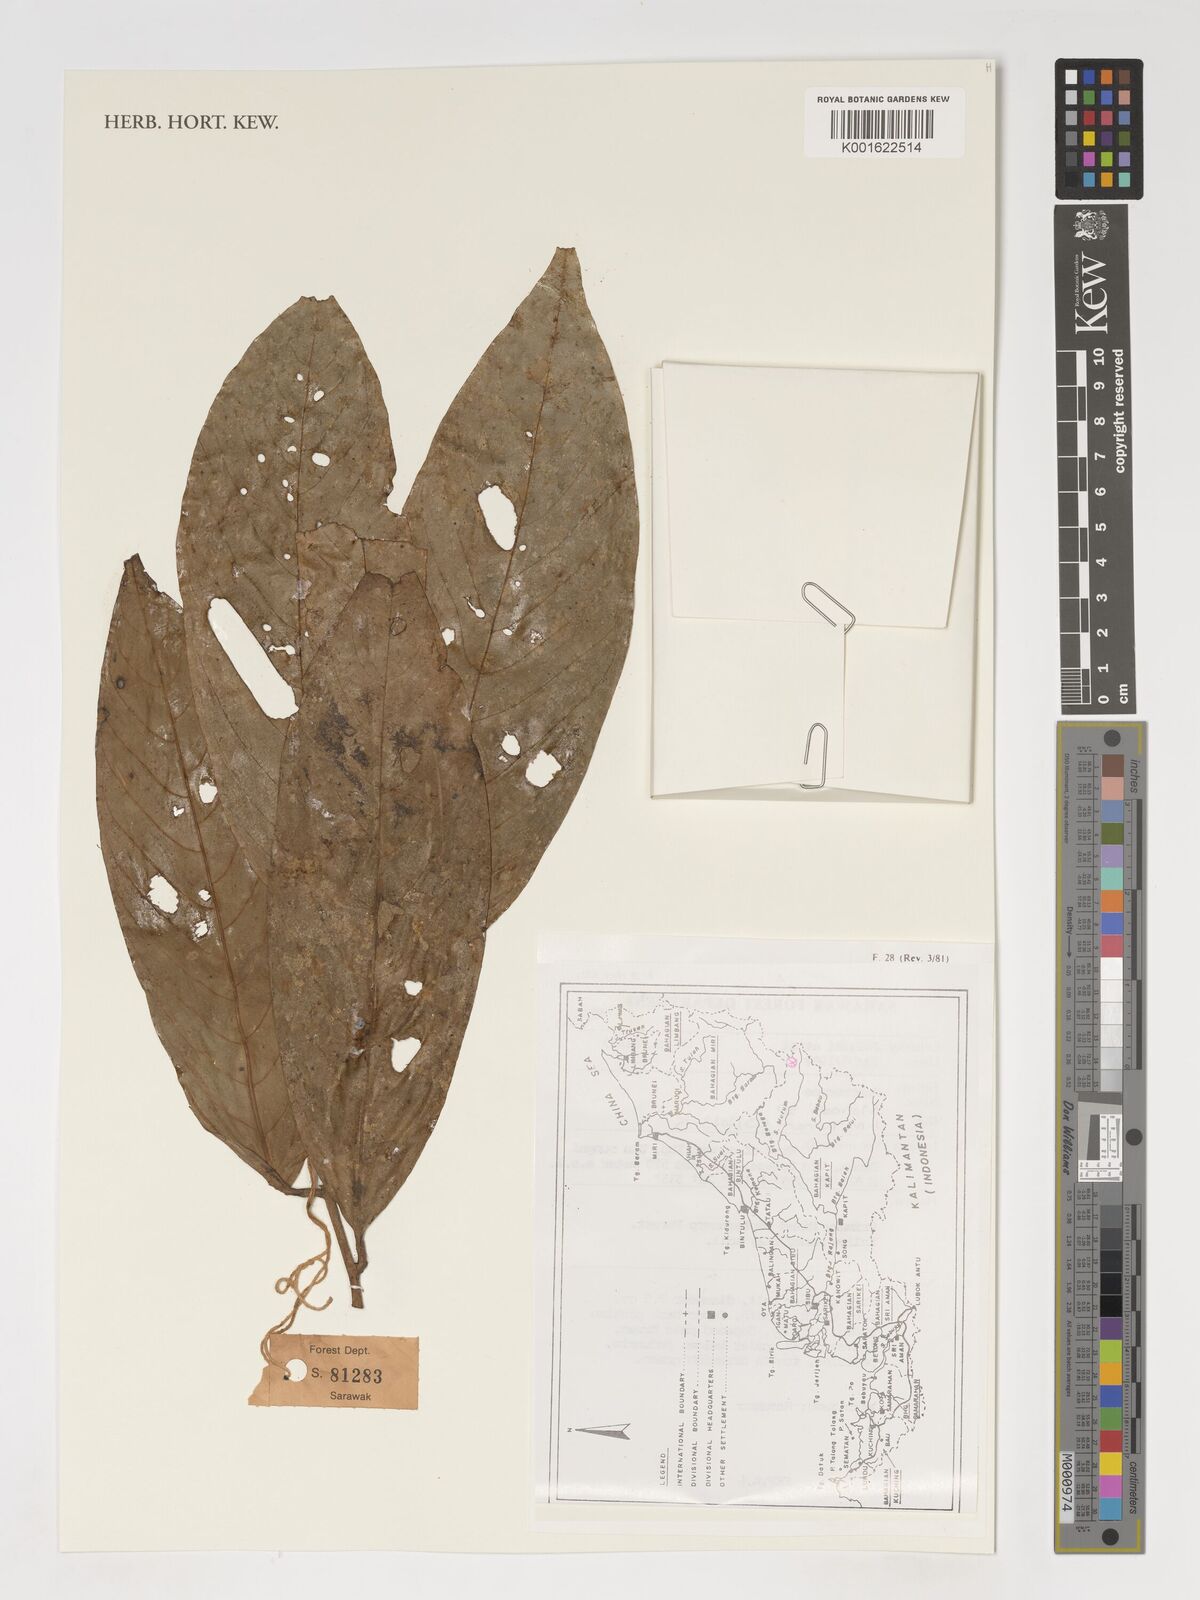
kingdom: Plantae
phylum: Tracheophyta
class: Magnoliopsida
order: Magnoliales
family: Annonaceae
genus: Monoon
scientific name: Monoon
